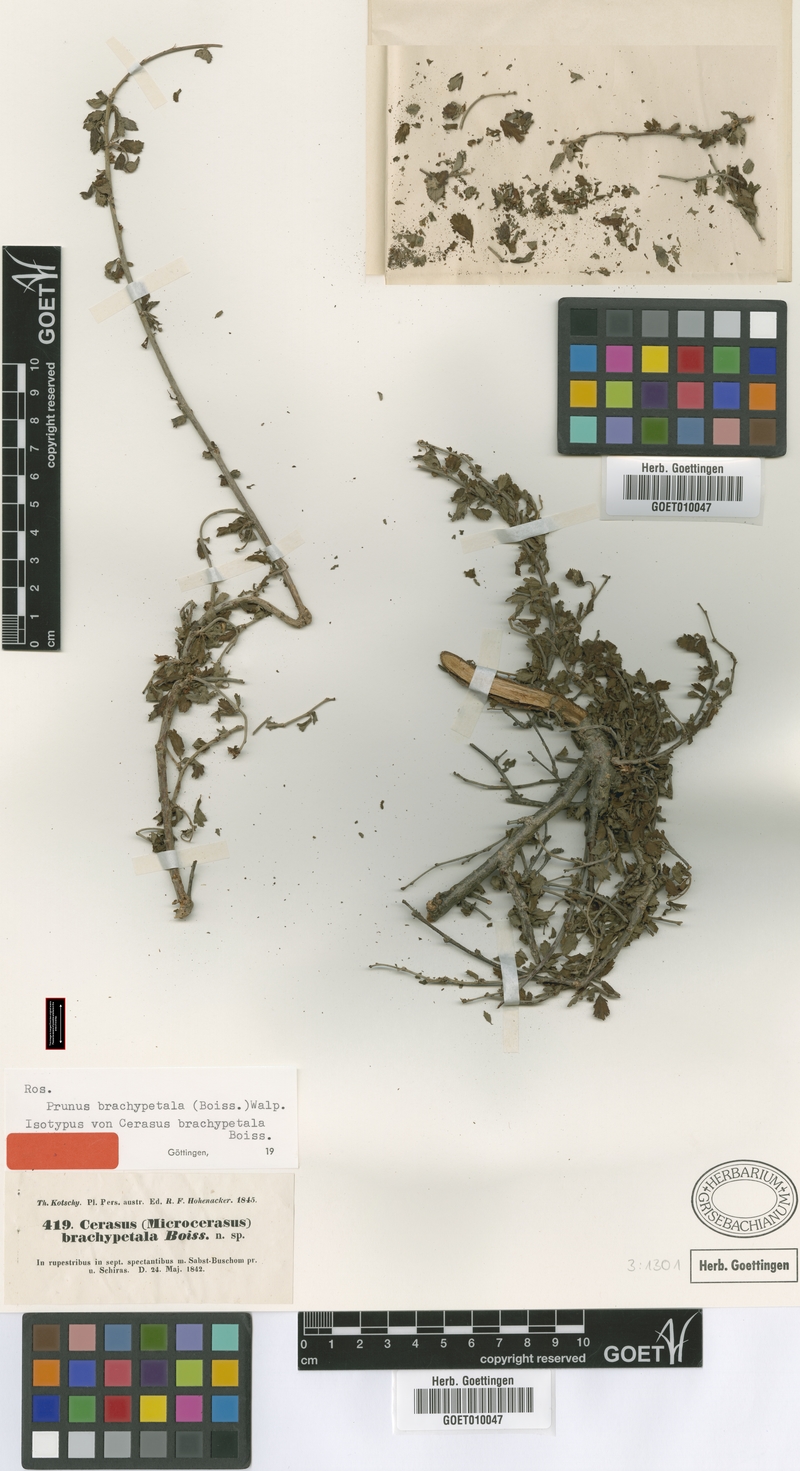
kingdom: Plantae
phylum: Tracheophyta
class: Magnoliopsida
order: Rosales
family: Rosaceae
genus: Prunus
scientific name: Prunus brachypetala
